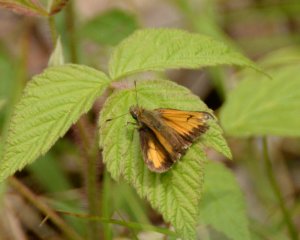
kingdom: Animalia
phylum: Arthropoda
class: Insecta
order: Lepidoptera
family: Hesperiidae
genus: Lon
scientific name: Lon hobomok
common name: Hobomok Skipper
